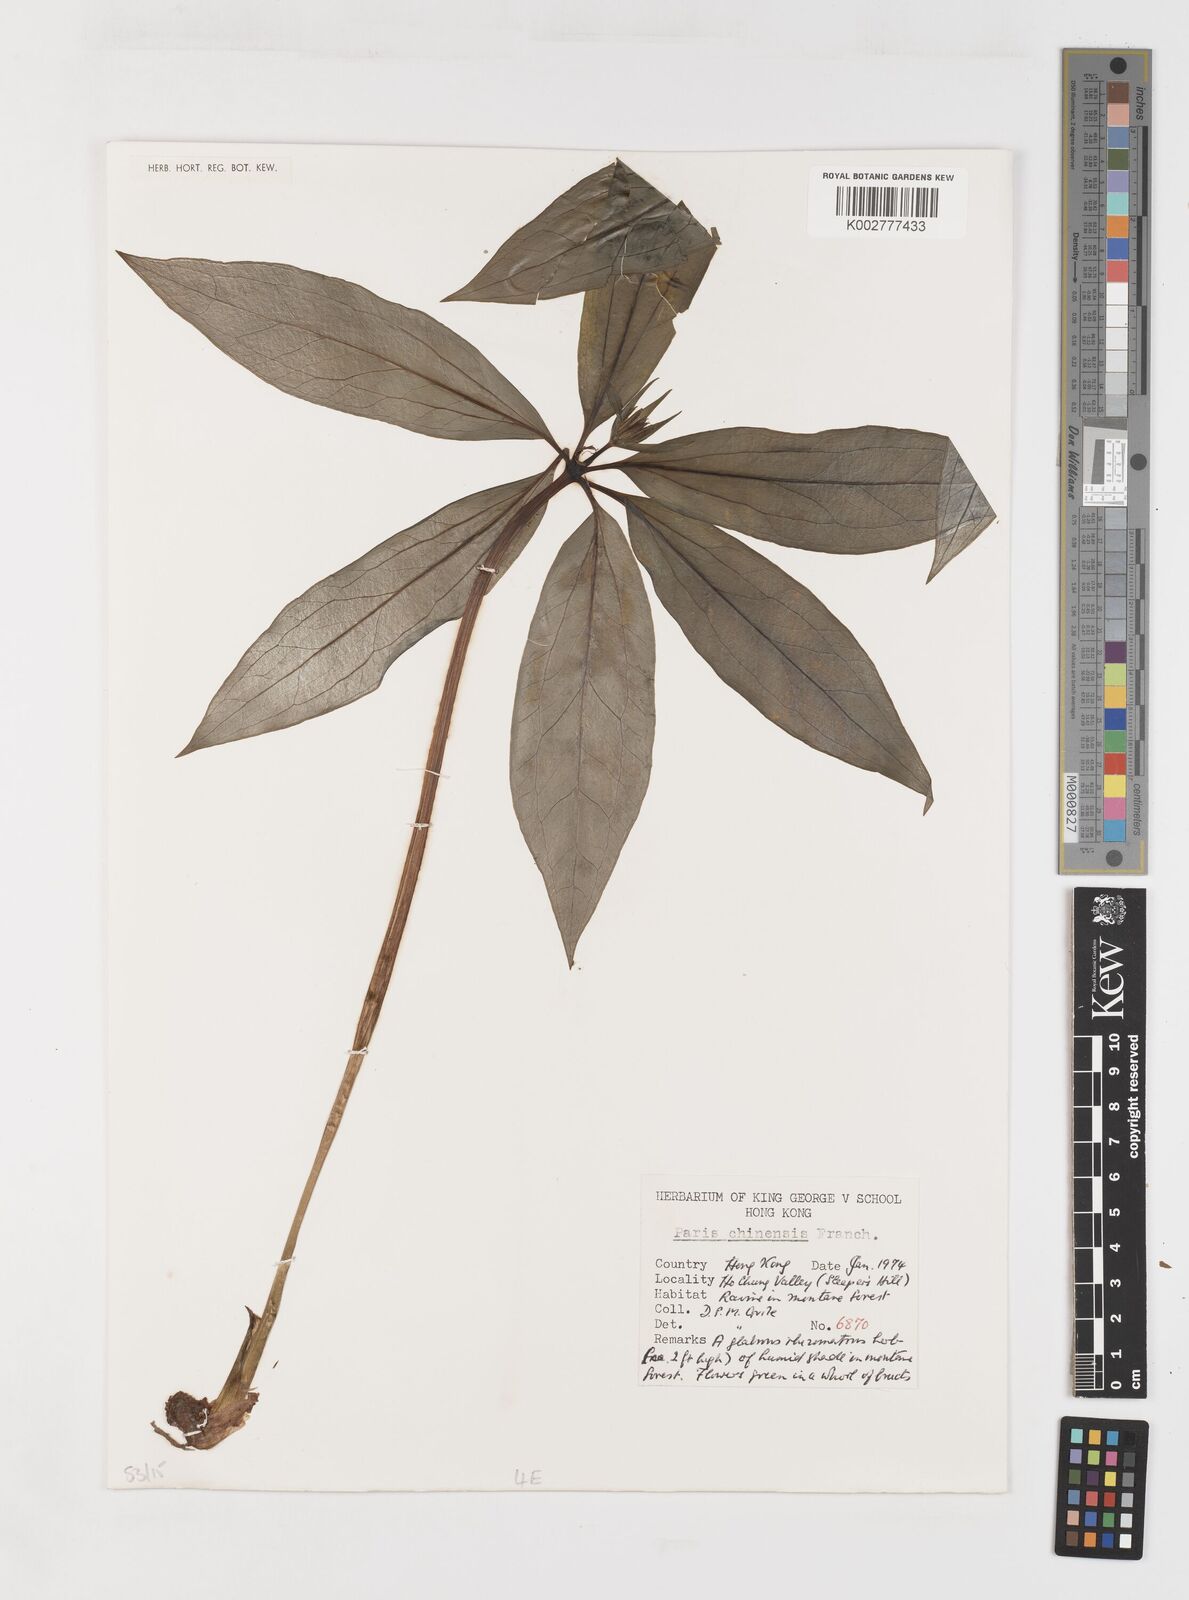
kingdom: Plantae
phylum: Tracheophyta
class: Liliopsida
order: Liliales
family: Melanthiaceae
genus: Paris
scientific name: Paris chinensis
